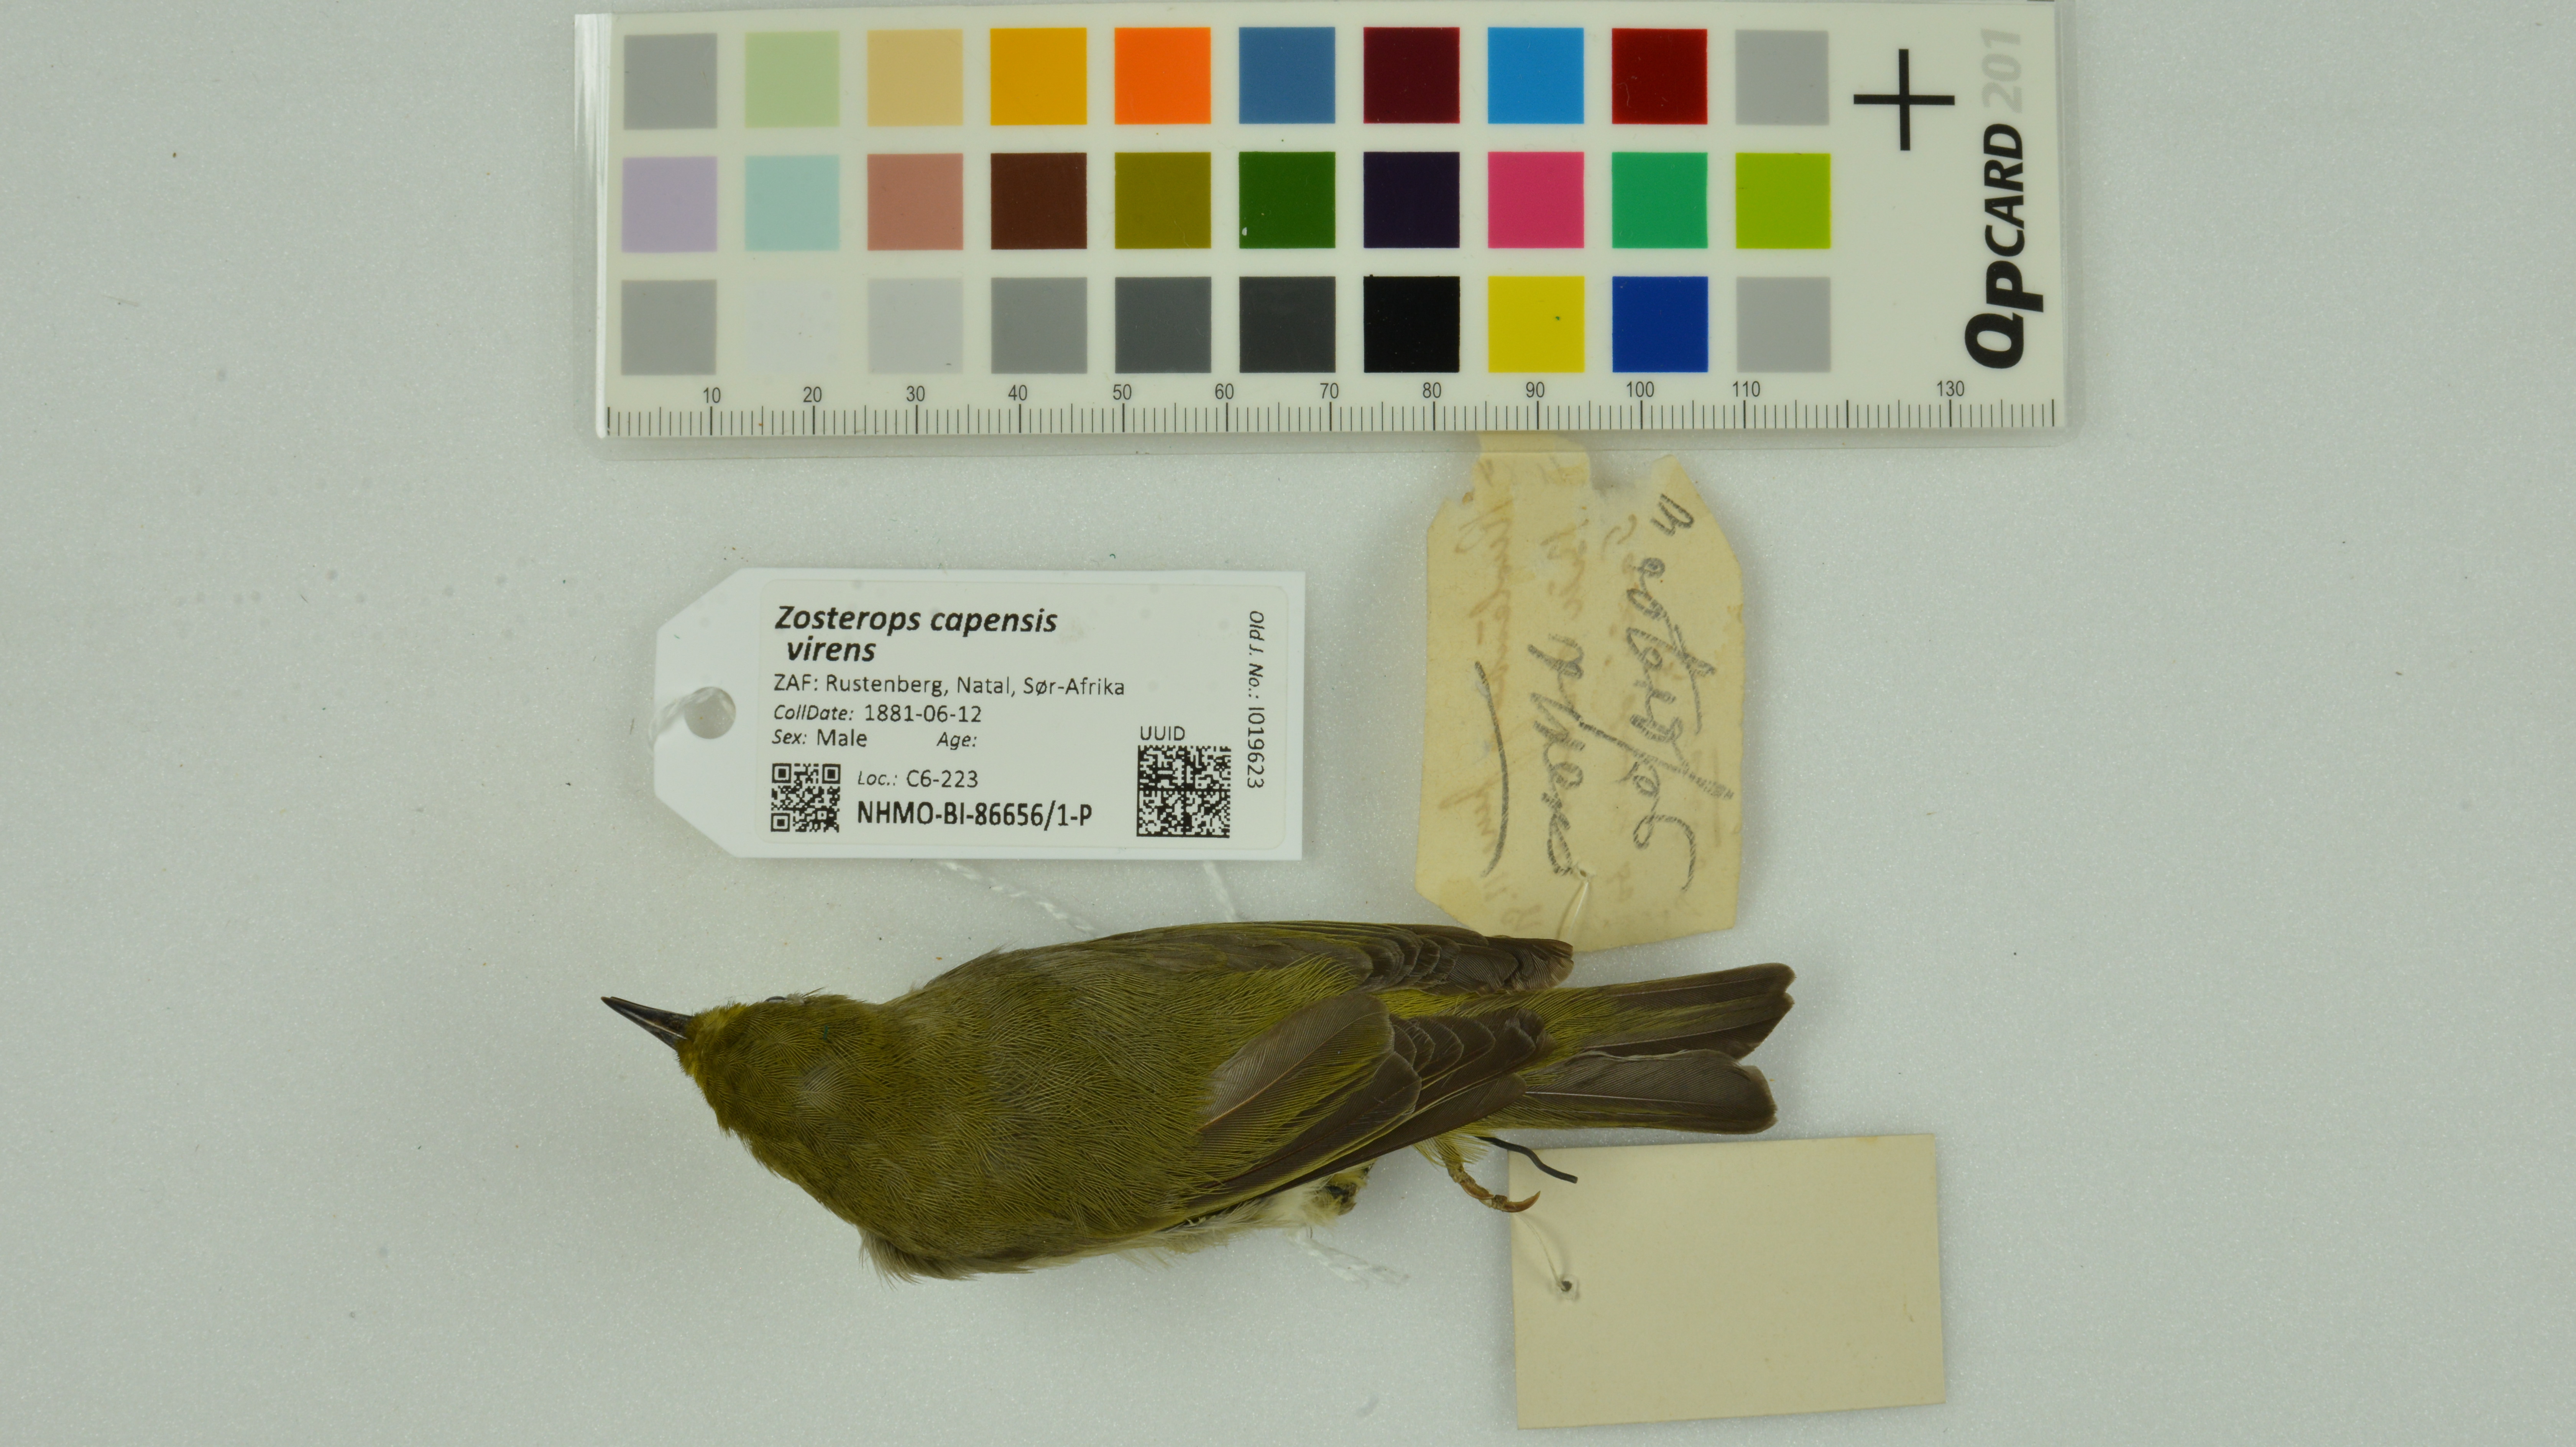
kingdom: Animalia
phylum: Chordata
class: Aves
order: Passeriformes
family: Zosteropidae
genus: Zosterops
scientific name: Zosterops virens
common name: Cape white-eye
